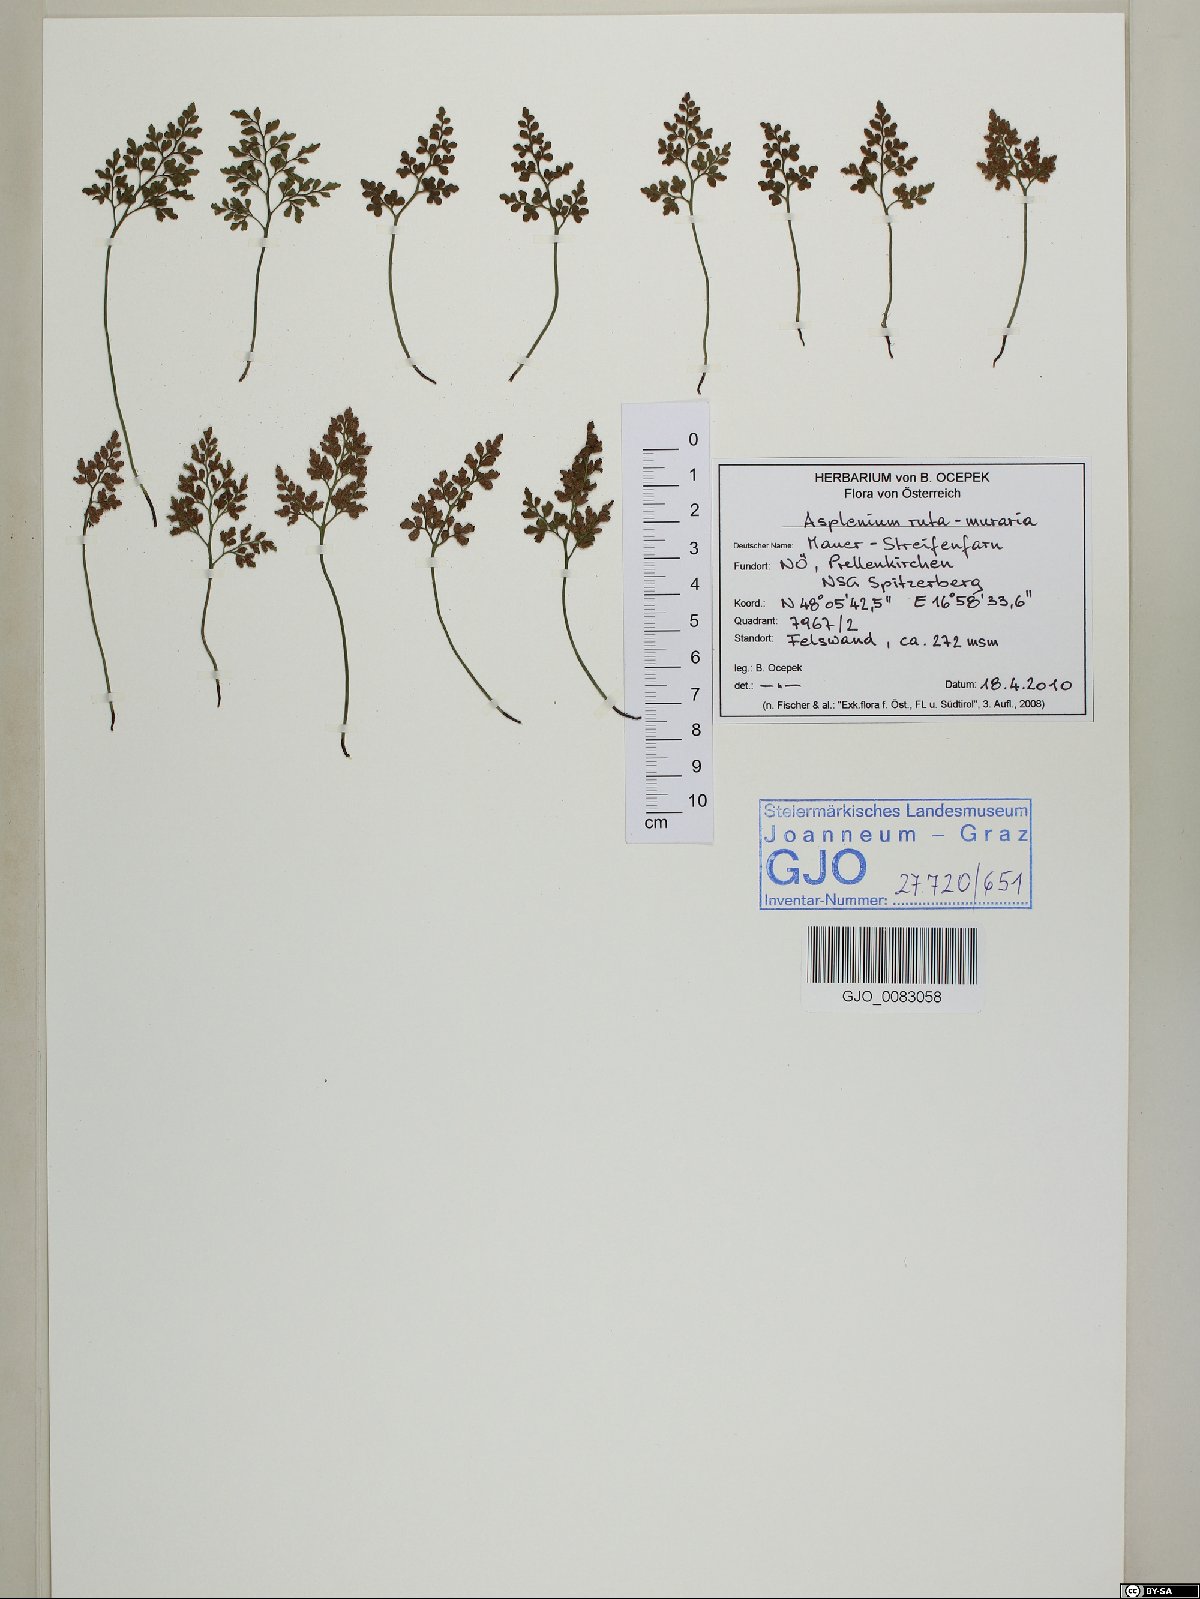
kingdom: Plantae
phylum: Tracheophyta
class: Polypodiopsida
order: Polypodiales
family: Aspleniaceae
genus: Asplenium
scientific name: Asplenium ruta-muraria
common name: Wall-rue
